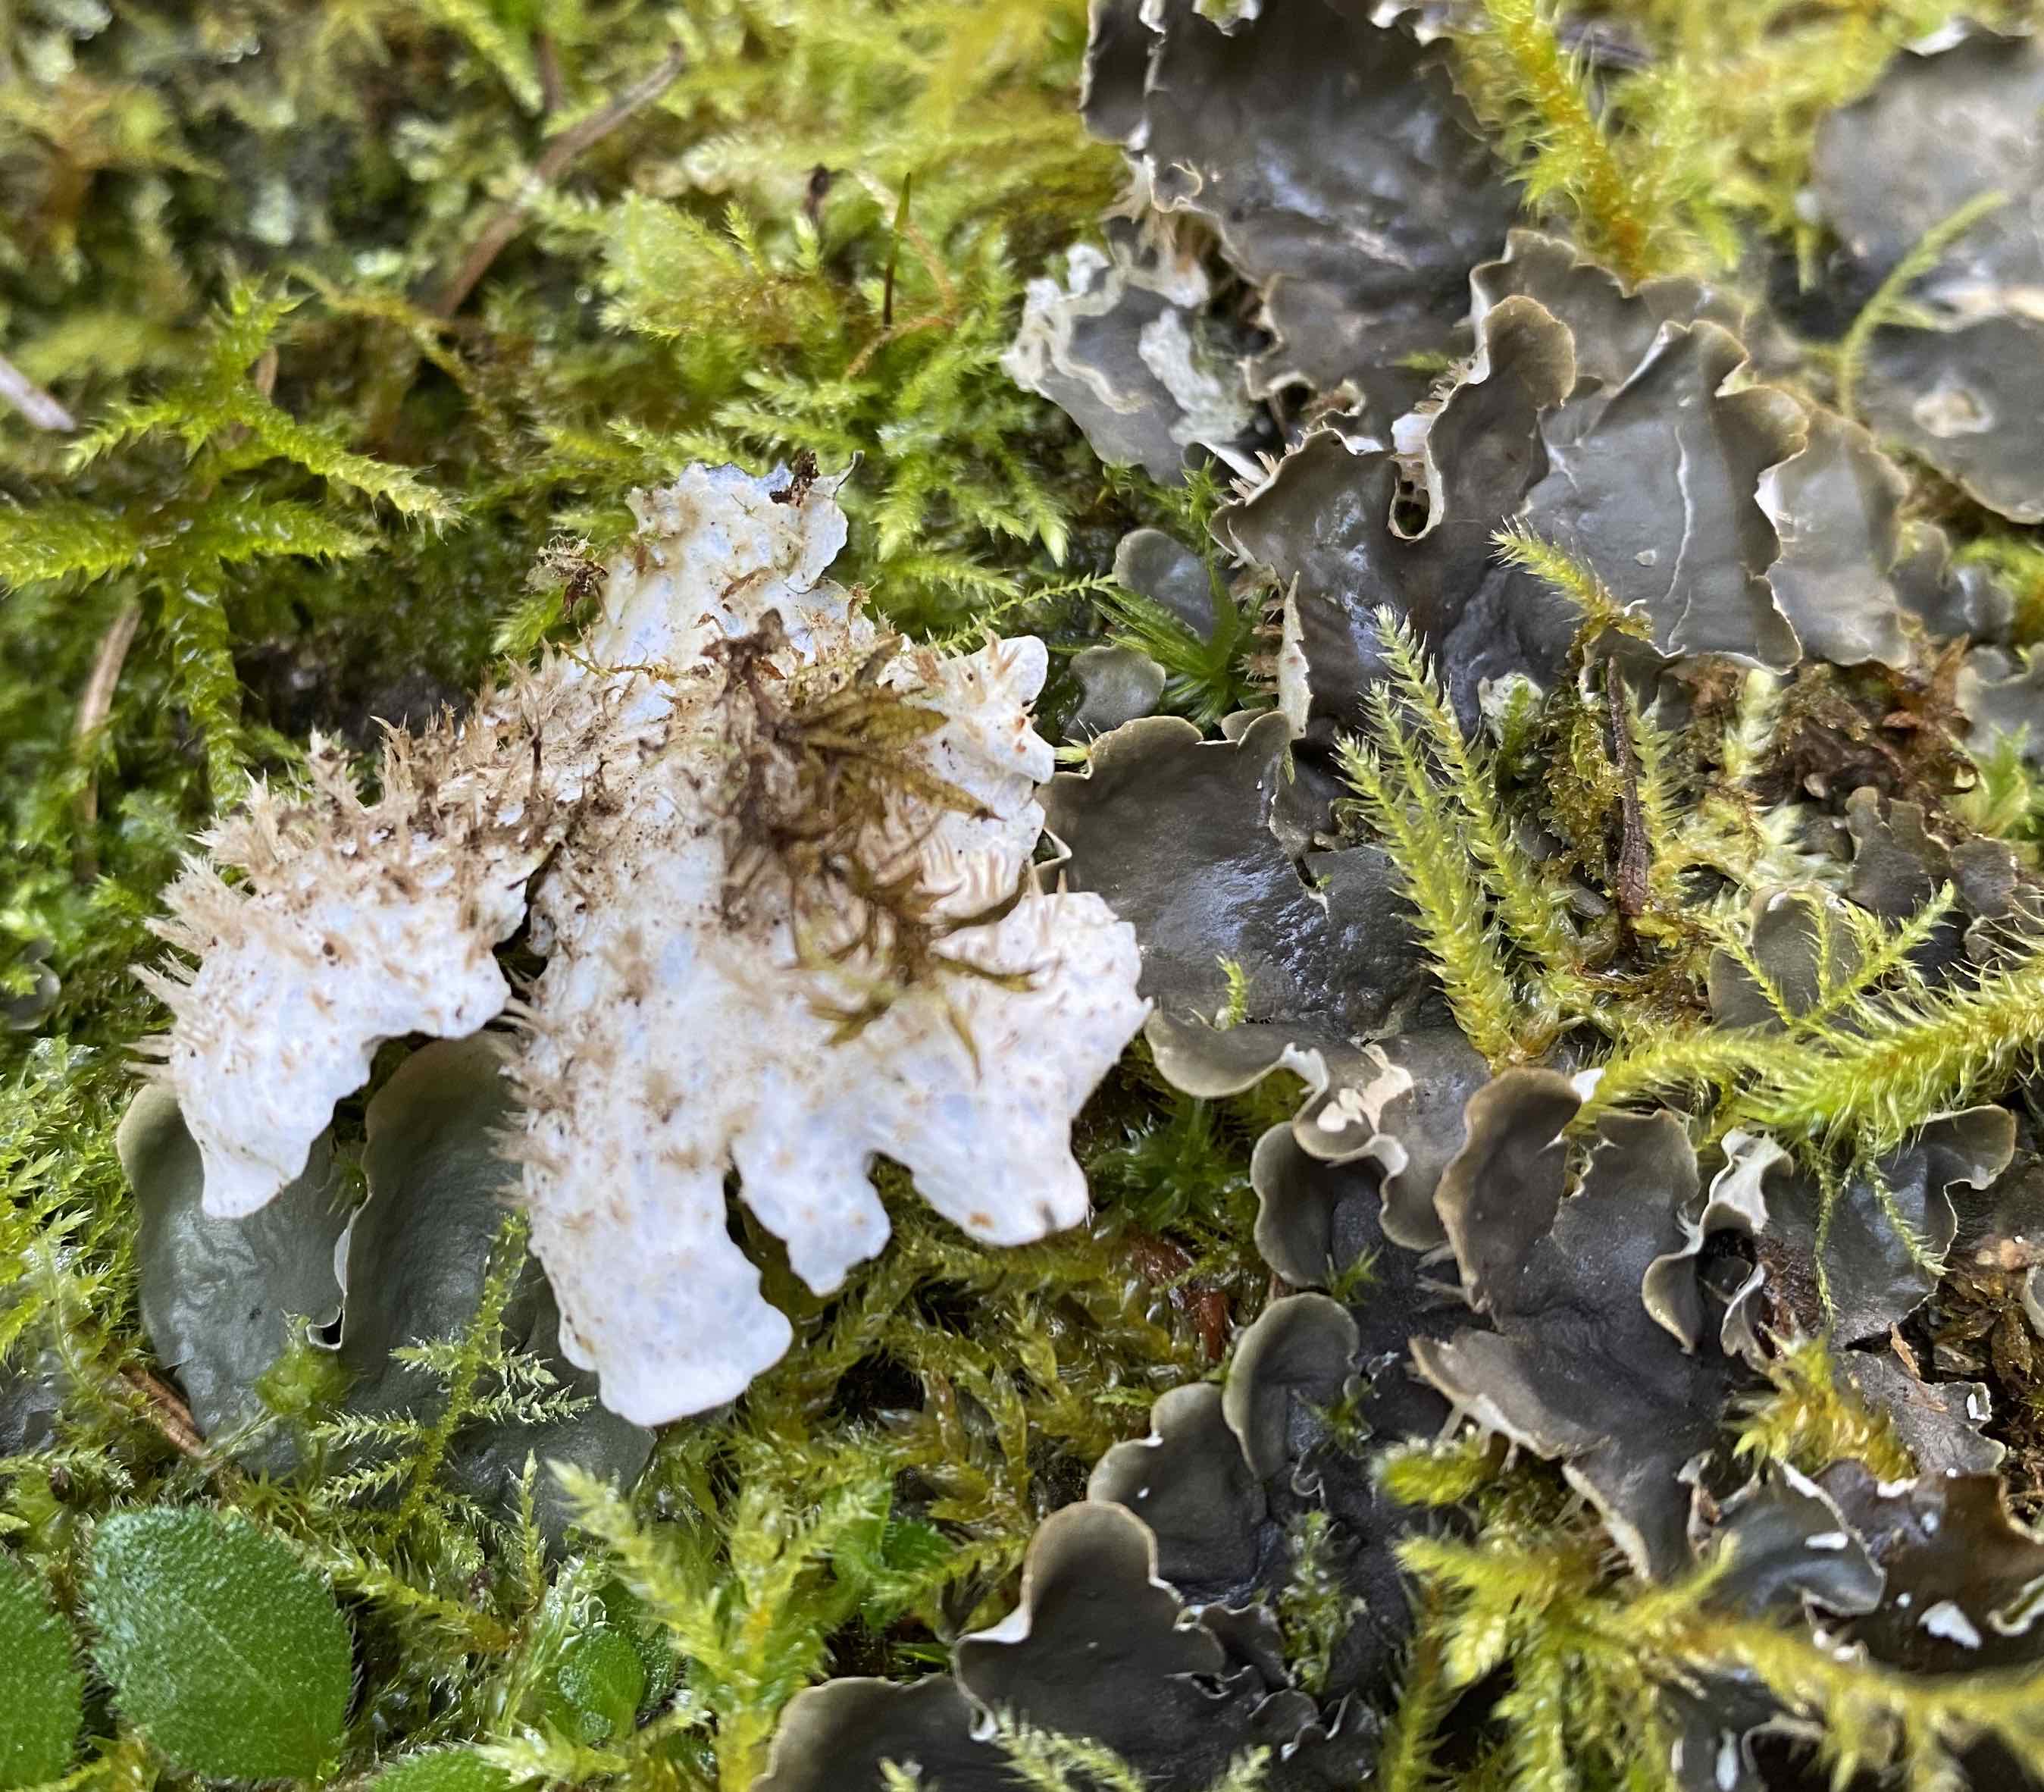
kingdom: Fungi
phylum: Ascomycota
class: Lecanoromycetes
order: Peltigerales
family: Peltigeraceae
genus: Peltigera
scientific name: Peltigera hymenina
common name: hinde-skjoldlav
